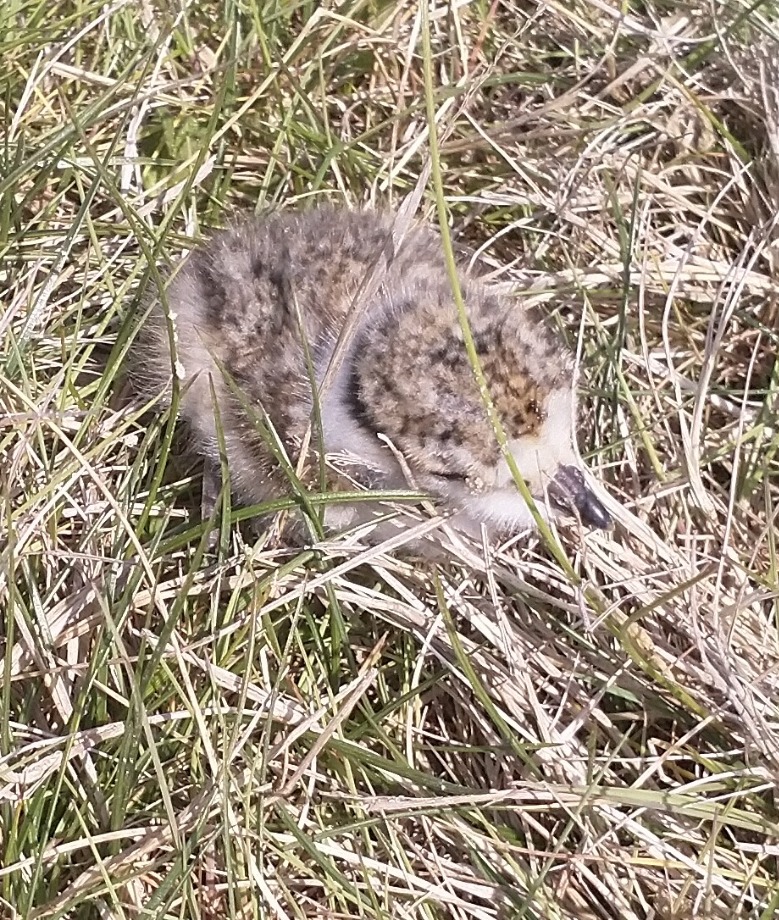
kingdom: Animalia
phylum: Chordata
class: Aves
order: Charadriiformes
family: Charadriidae
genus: Charadrius
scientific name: Charadrius hiaticula
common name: Stor præstekrave
